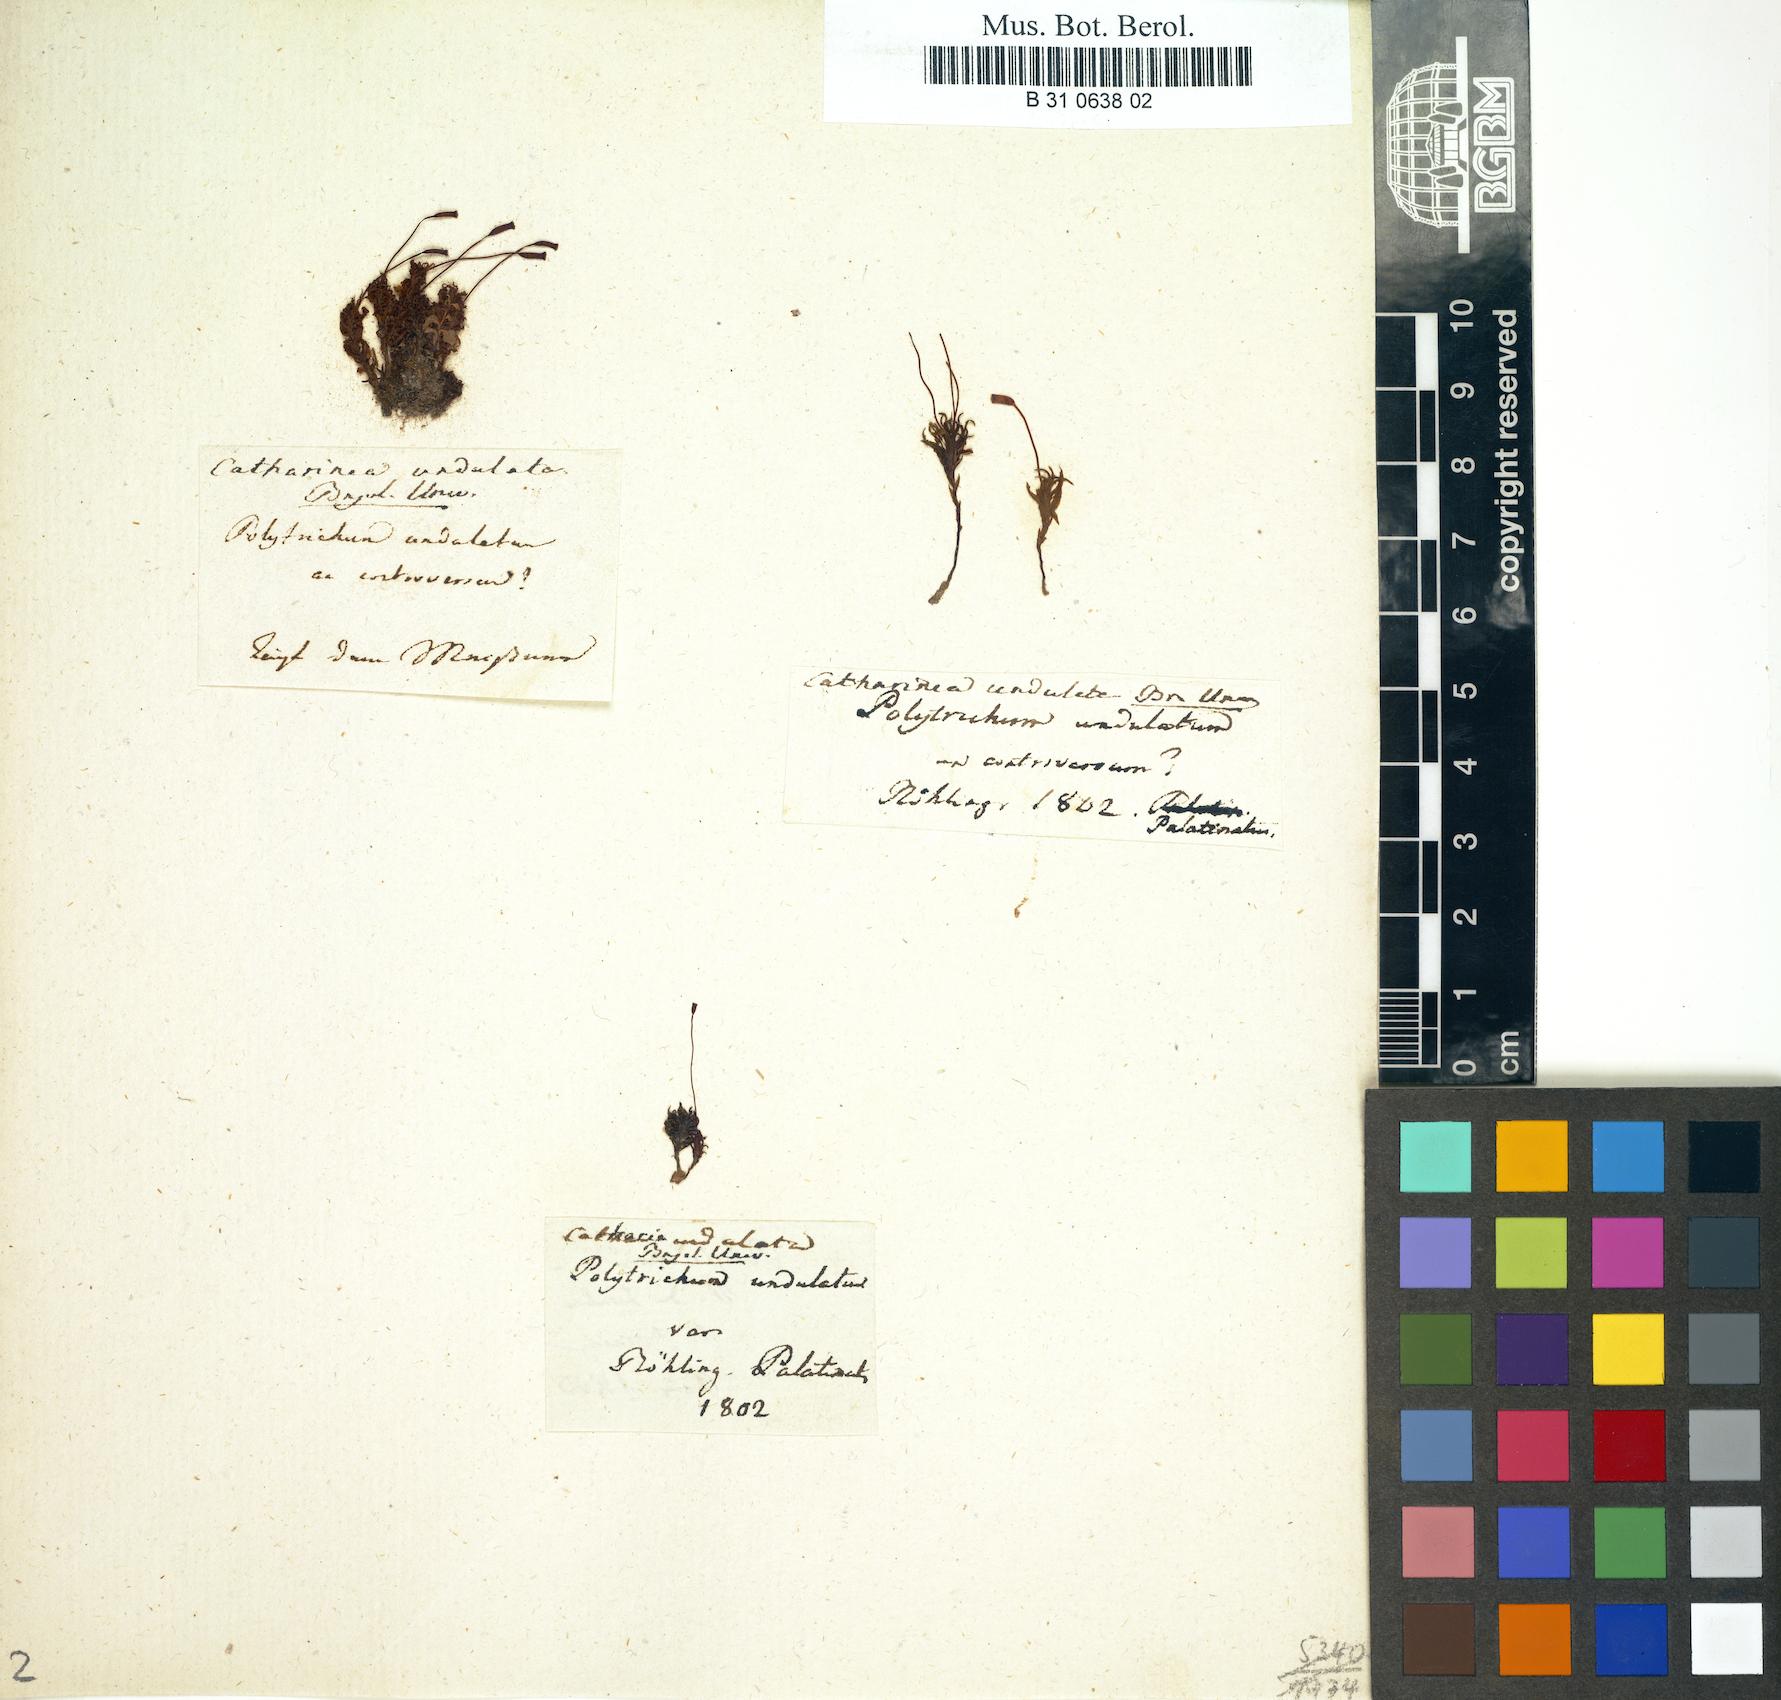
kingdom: Plantae
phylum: Bryophyta
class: Polytrichopsida
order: Polytrichales
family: Polytrichaceae
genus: Atrichum
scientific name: Atrichum undulatum
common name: Common smoothcap
